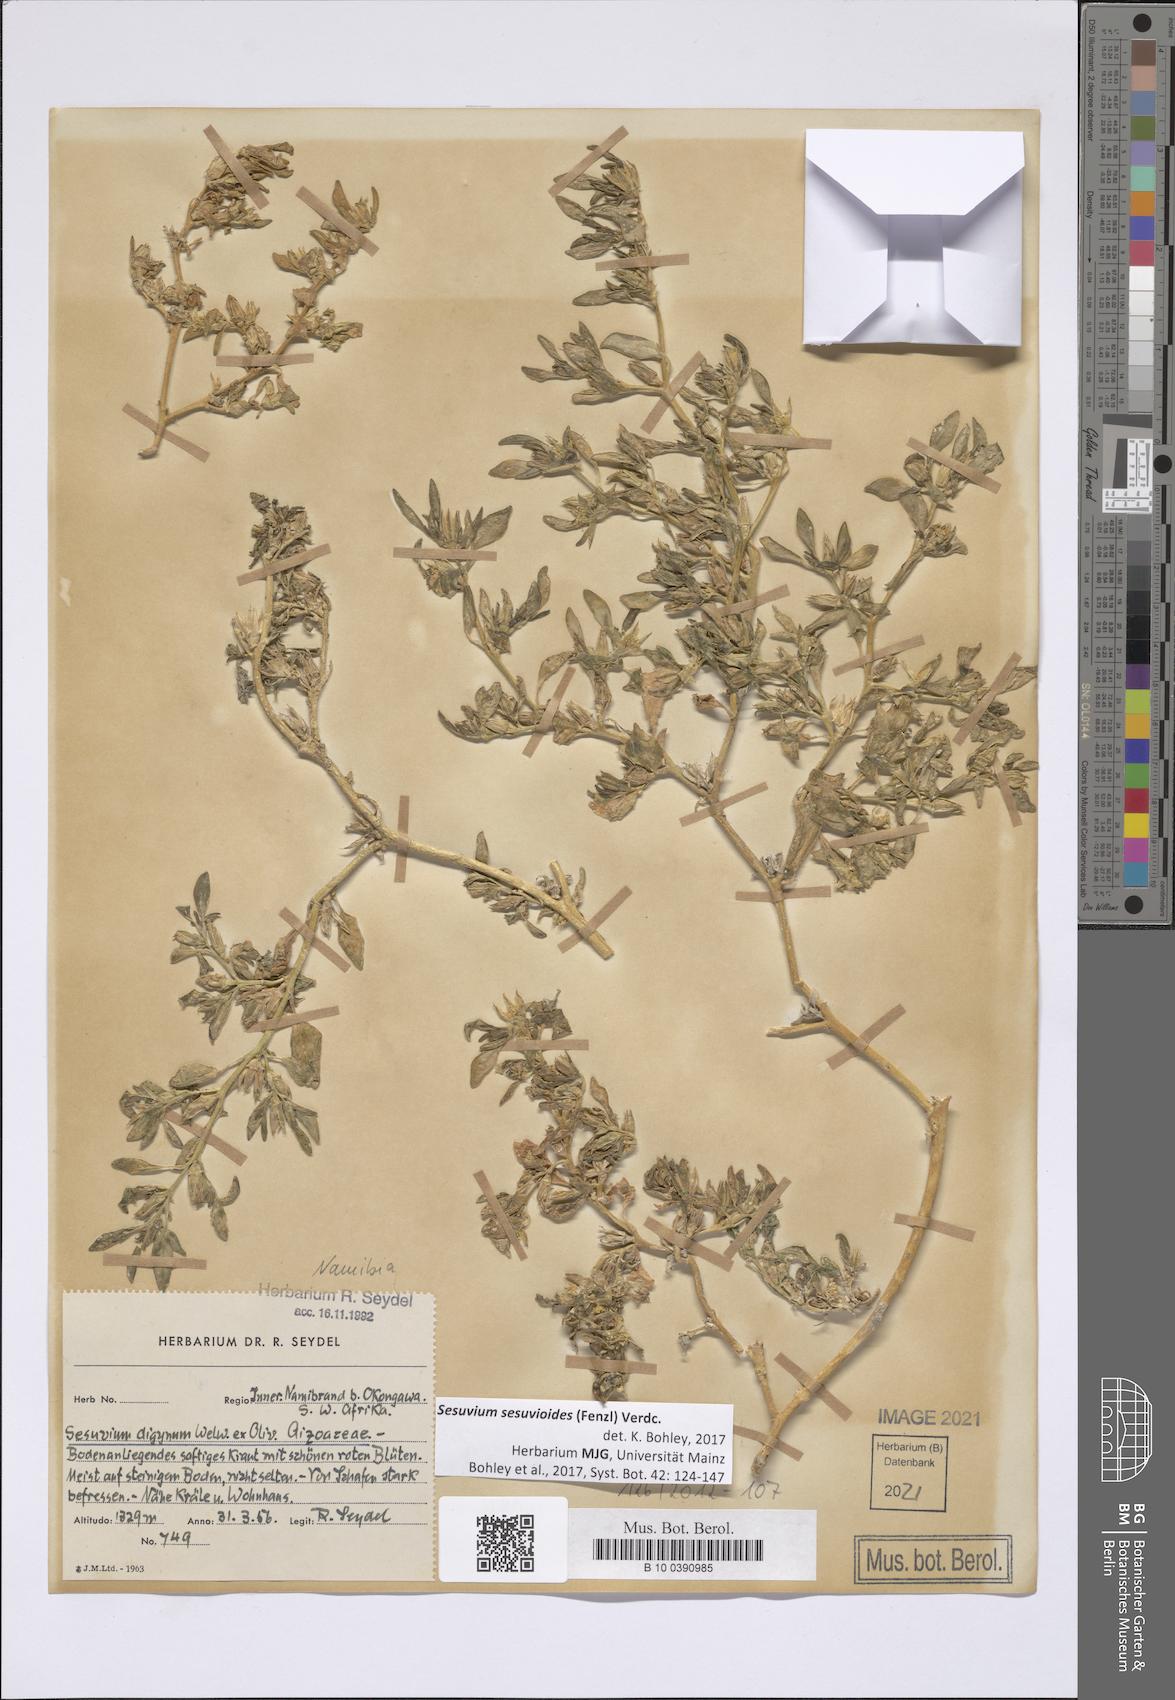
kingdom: Plantae
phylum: Tracheophyta
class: Magnoliopsida
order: Caryophyllales
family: Aizoaceae
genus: Sesuvium
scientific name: Sesuvium sesuvioides
